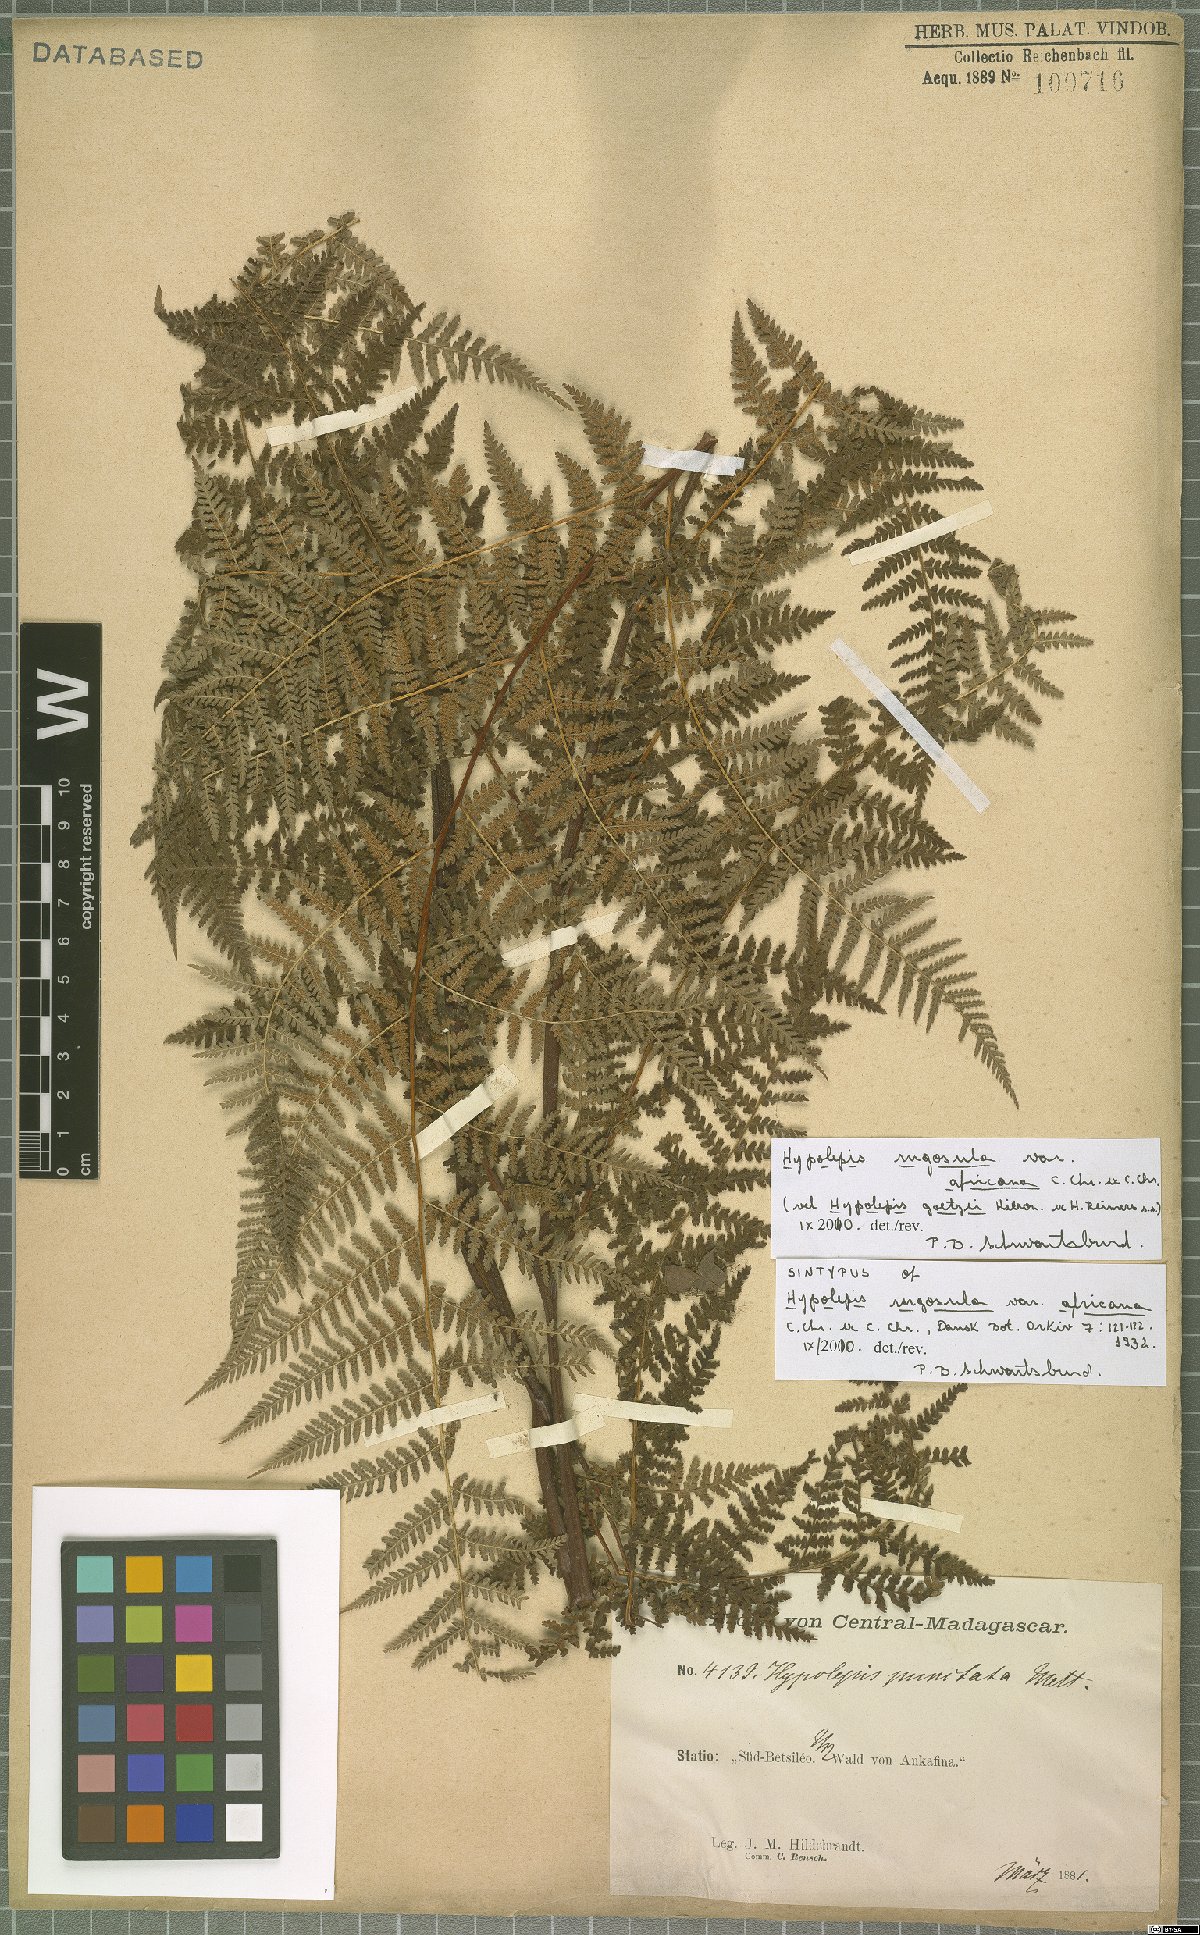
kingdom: Plantae
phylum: Tracheophyta
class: Polypodiopsida
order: Polypodiales
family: Dennstaedtiaceae
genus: Hypolepis
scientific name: Hypolepis rugosula
